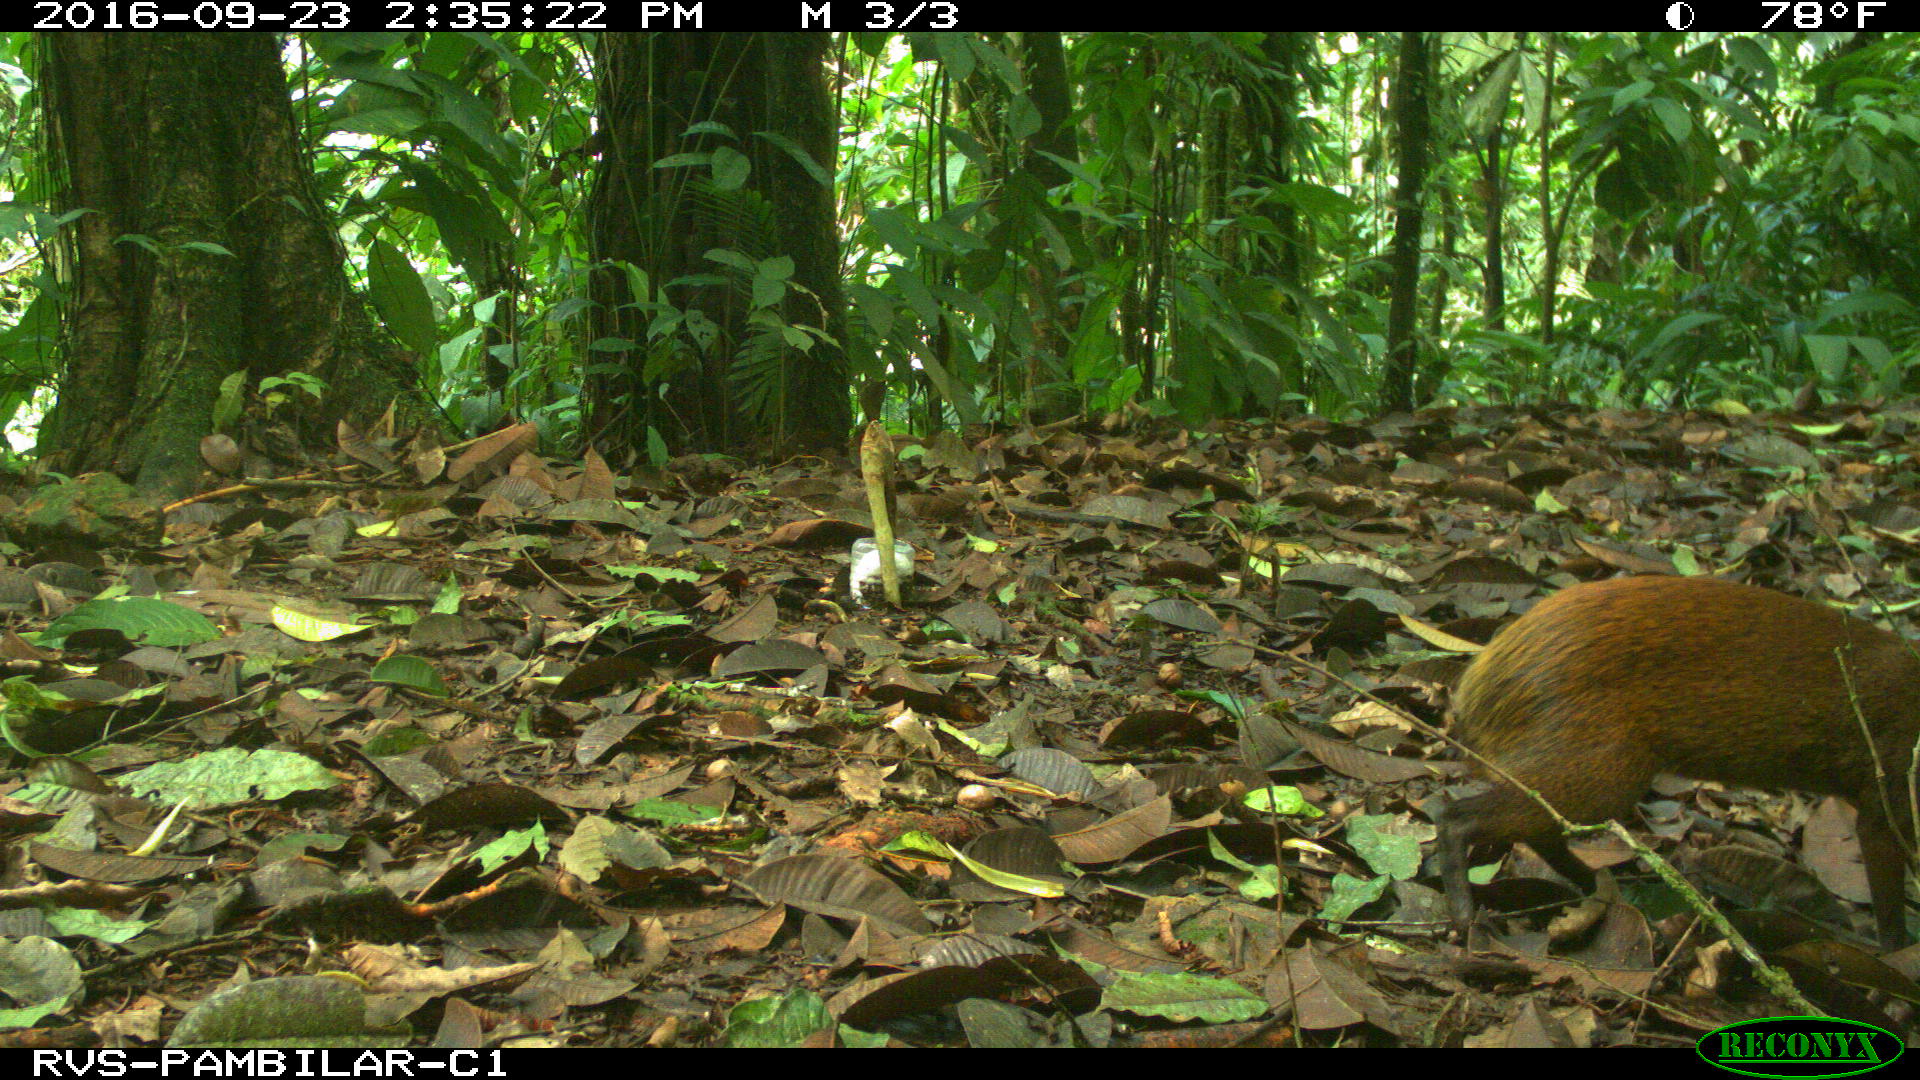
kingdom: Animalia
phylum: Chordata
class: Mammalia
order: Cingulata
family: Dasypodidae
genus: Dasypus
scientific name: Dasypus novemcinctus
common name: Nine-banded armadillo
